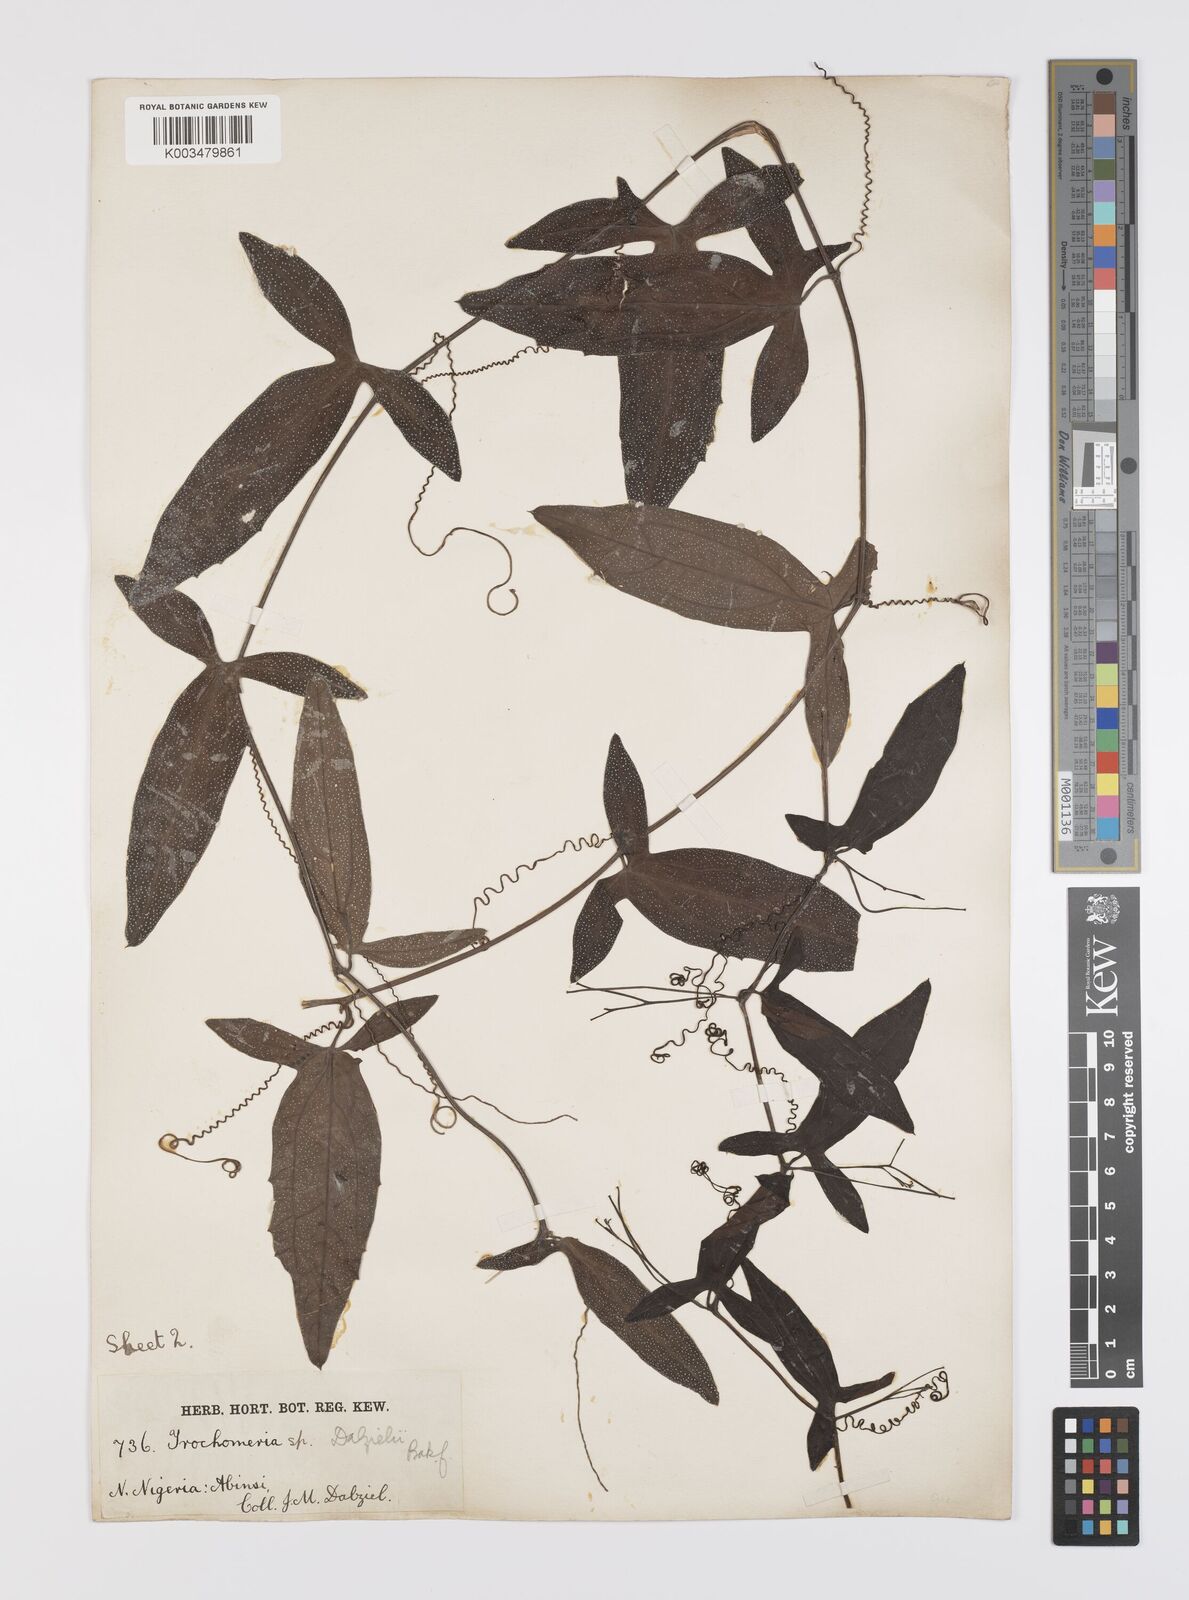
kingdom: Plantae
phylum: Tracheophyta
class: Magnoliopsida
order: Cucurbitales
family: Cucurbitaceae
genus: Trochomeria
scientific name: Trochomeria macrocarpa
